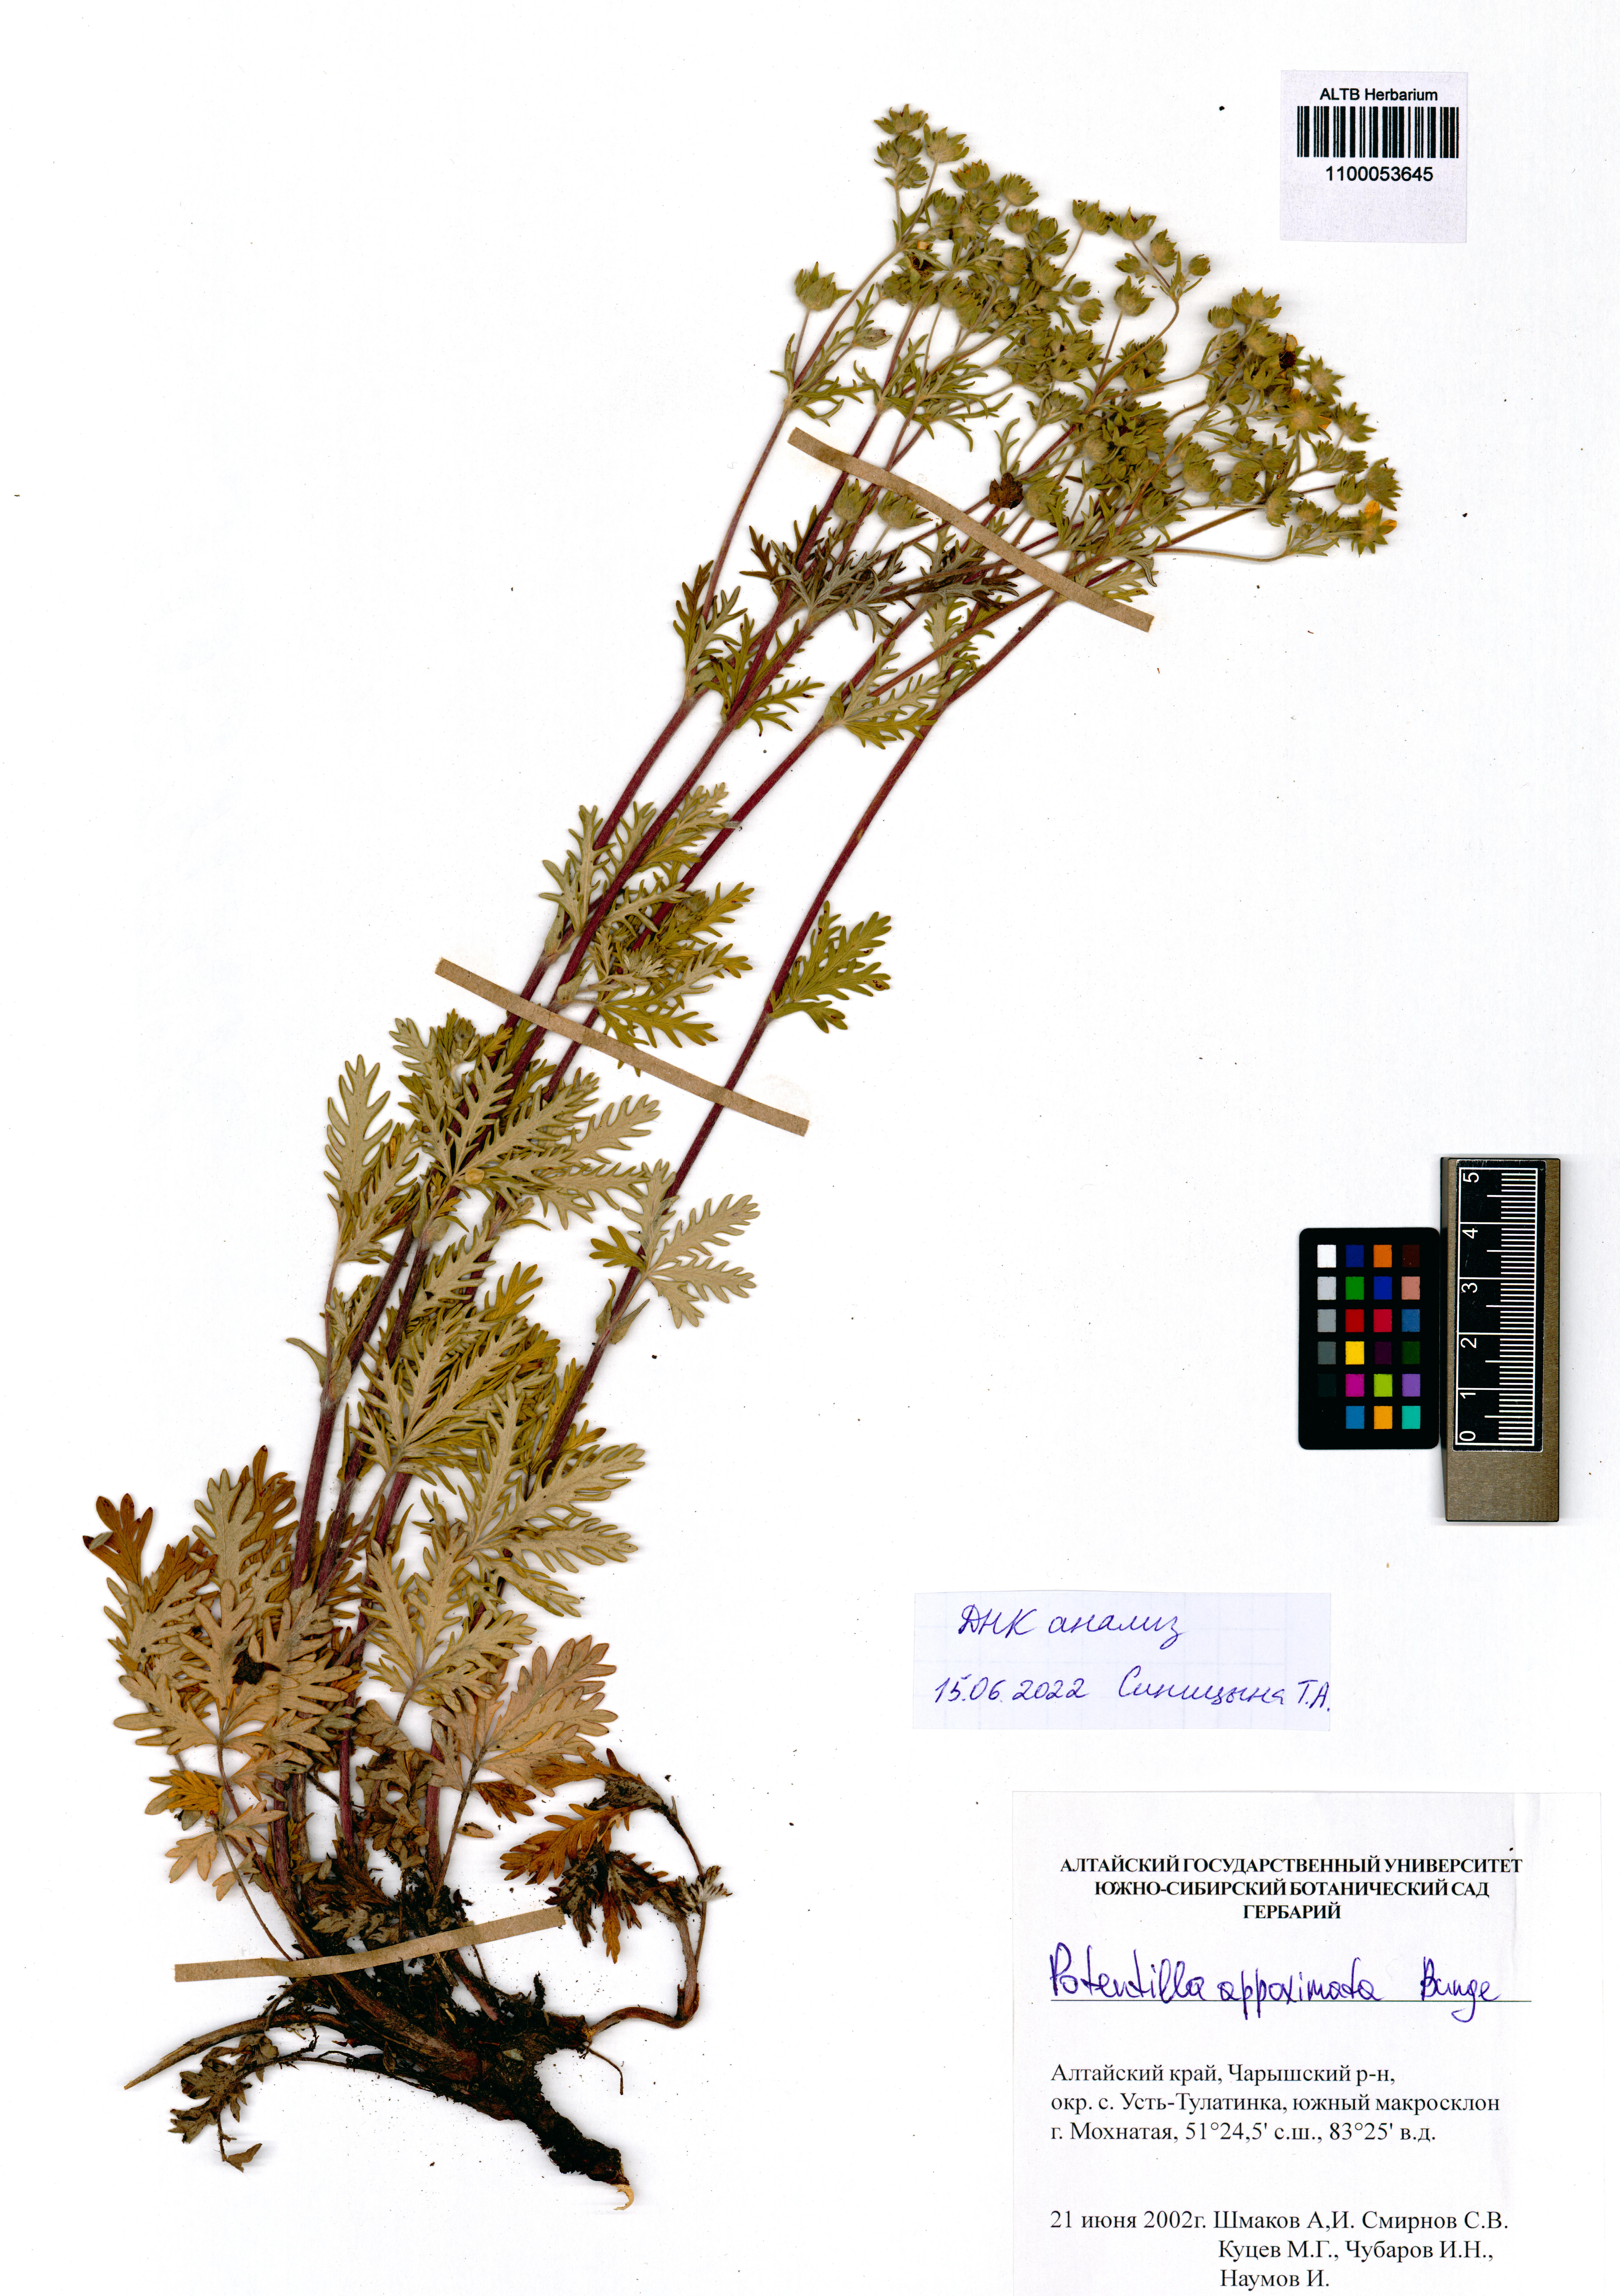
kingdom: Plantae
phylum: Tracheophyta
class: Magnoliopsida
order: Rosales
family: Rosaceae
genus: Potentilla
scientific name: Potentilla conferta
